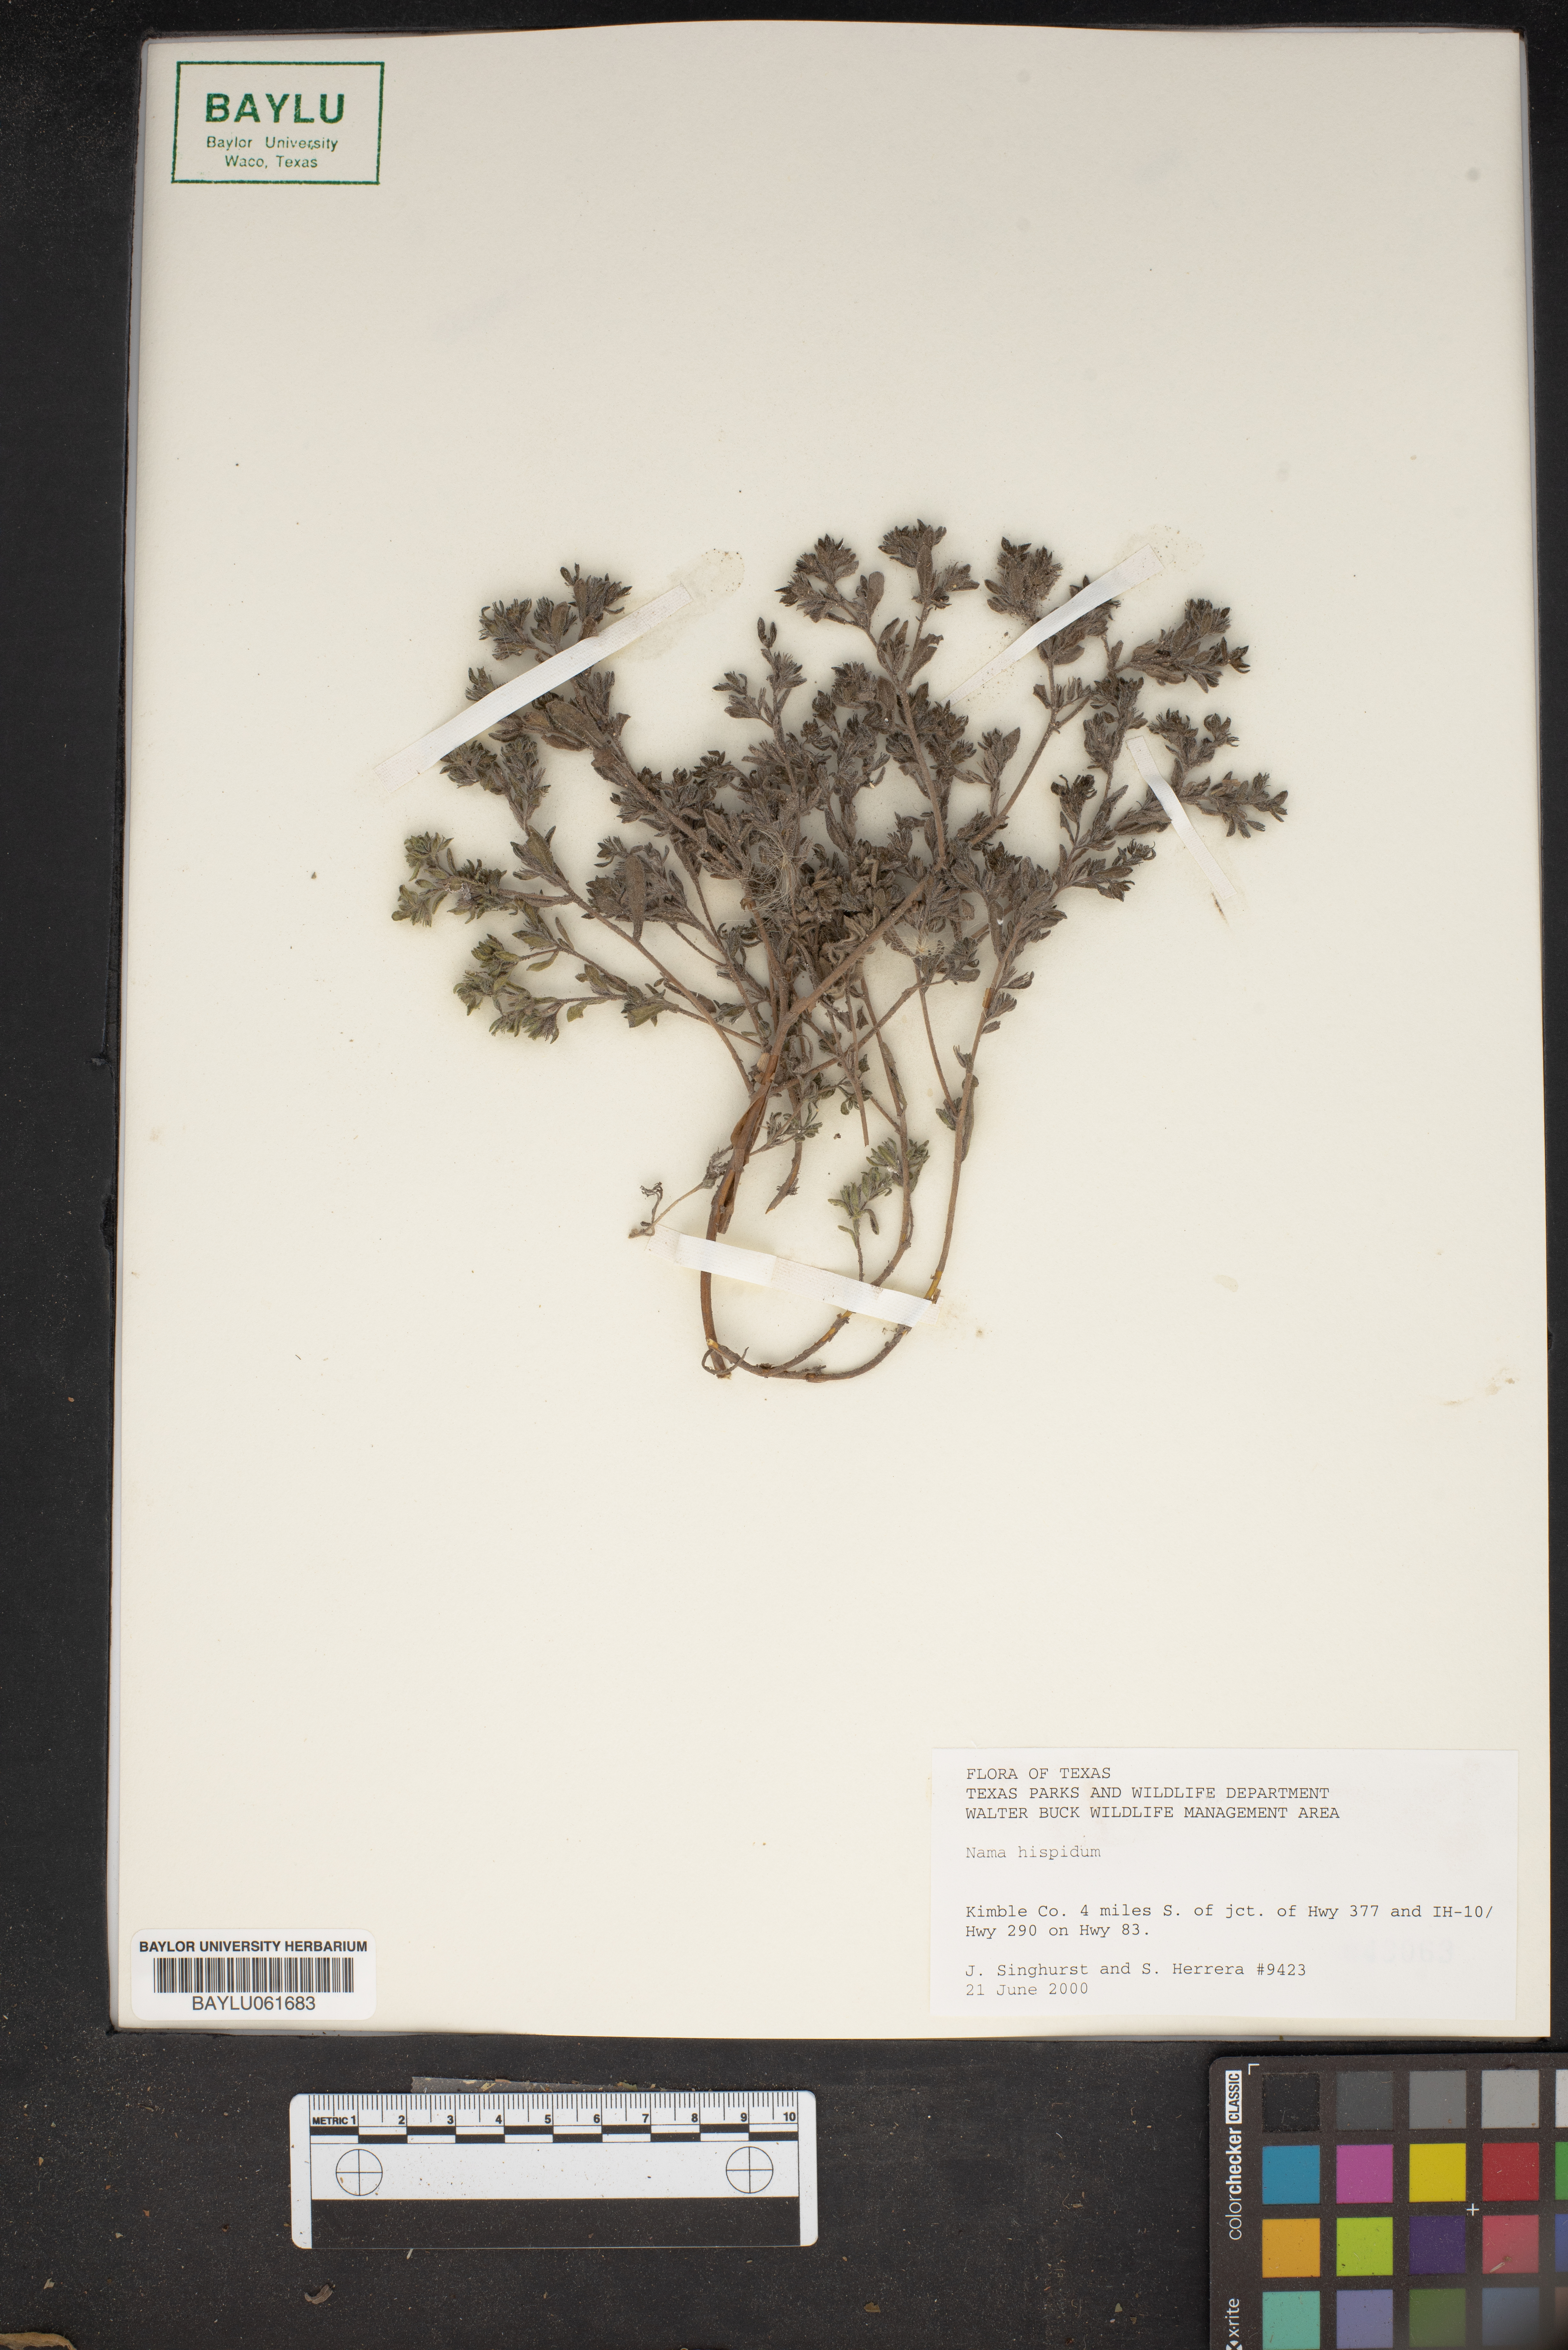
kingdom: Plantae
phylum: Tracheophyta
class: Magnoliopsida
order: Boraginales
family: Namaceae
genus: Nama
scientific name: Nama hispida
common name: Bristly nama
